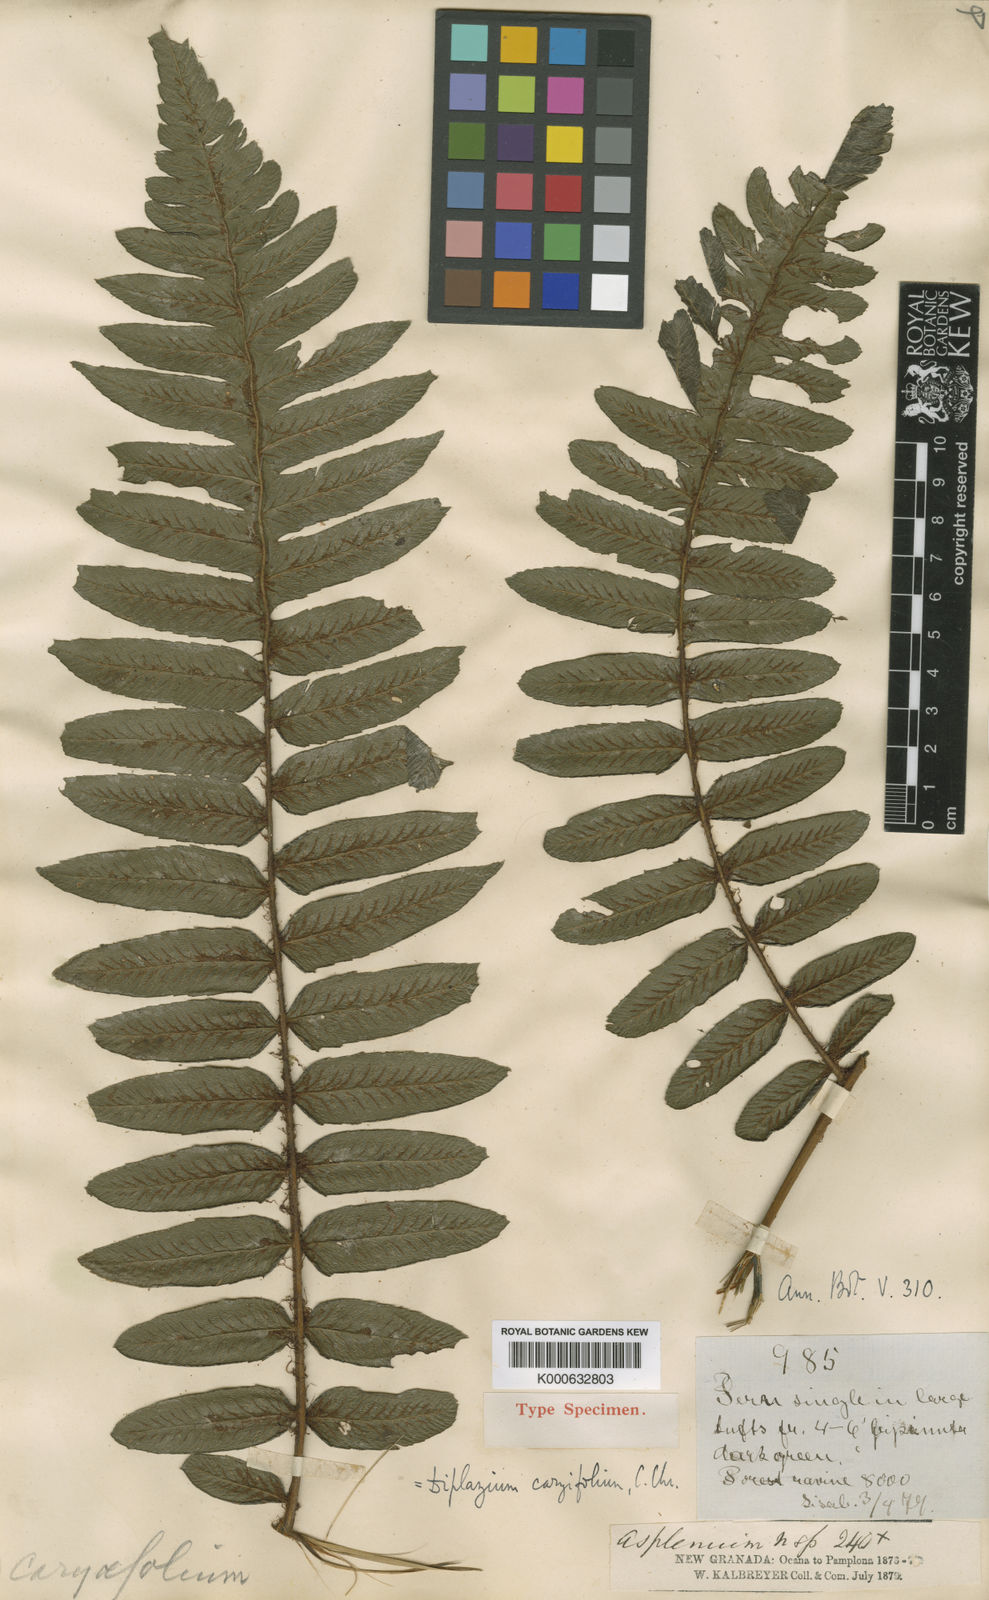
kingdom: Plantae
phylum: Tracheophyta
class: Polypodiopsida
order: Polypodiales
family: Athyriaceae
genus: Diplazium
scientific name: Diplazium nervosum
